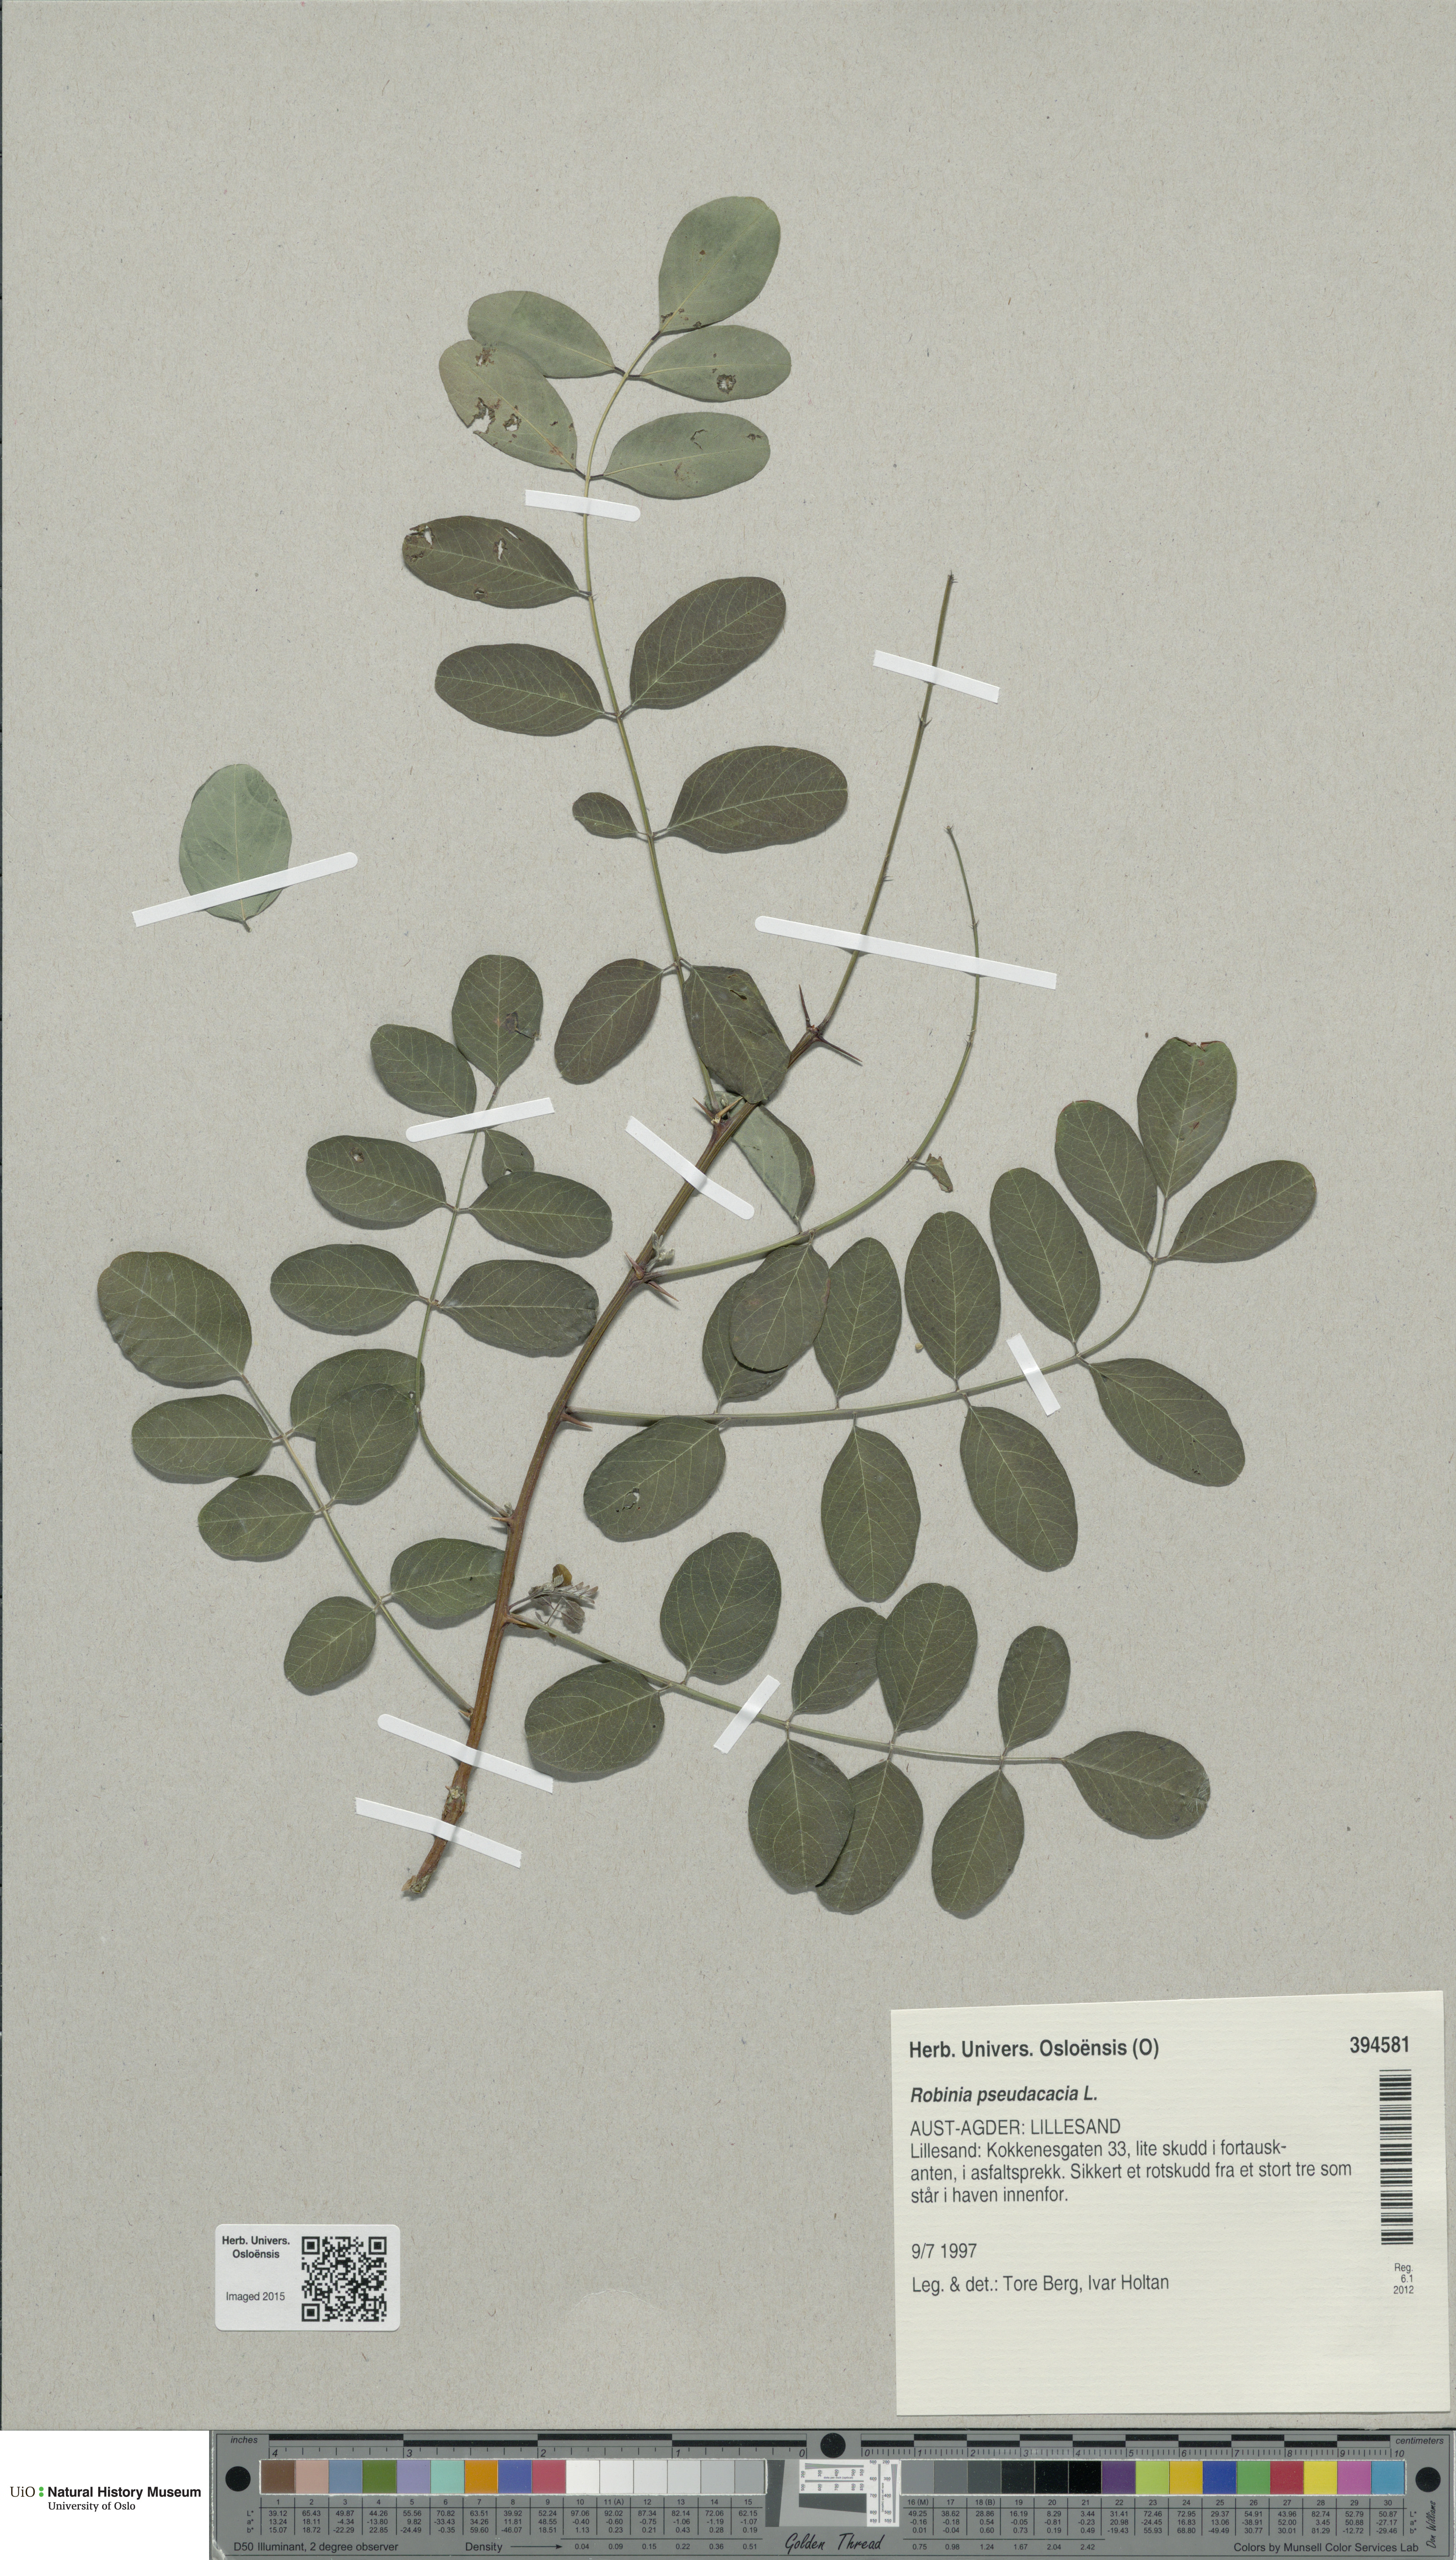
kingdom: Plantae
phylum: Tracheophyta
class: Magnoliopsida
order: Fabales
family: Fabaceae
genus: Robinia
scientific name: Robinia pseudoacacia
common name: Black locust
